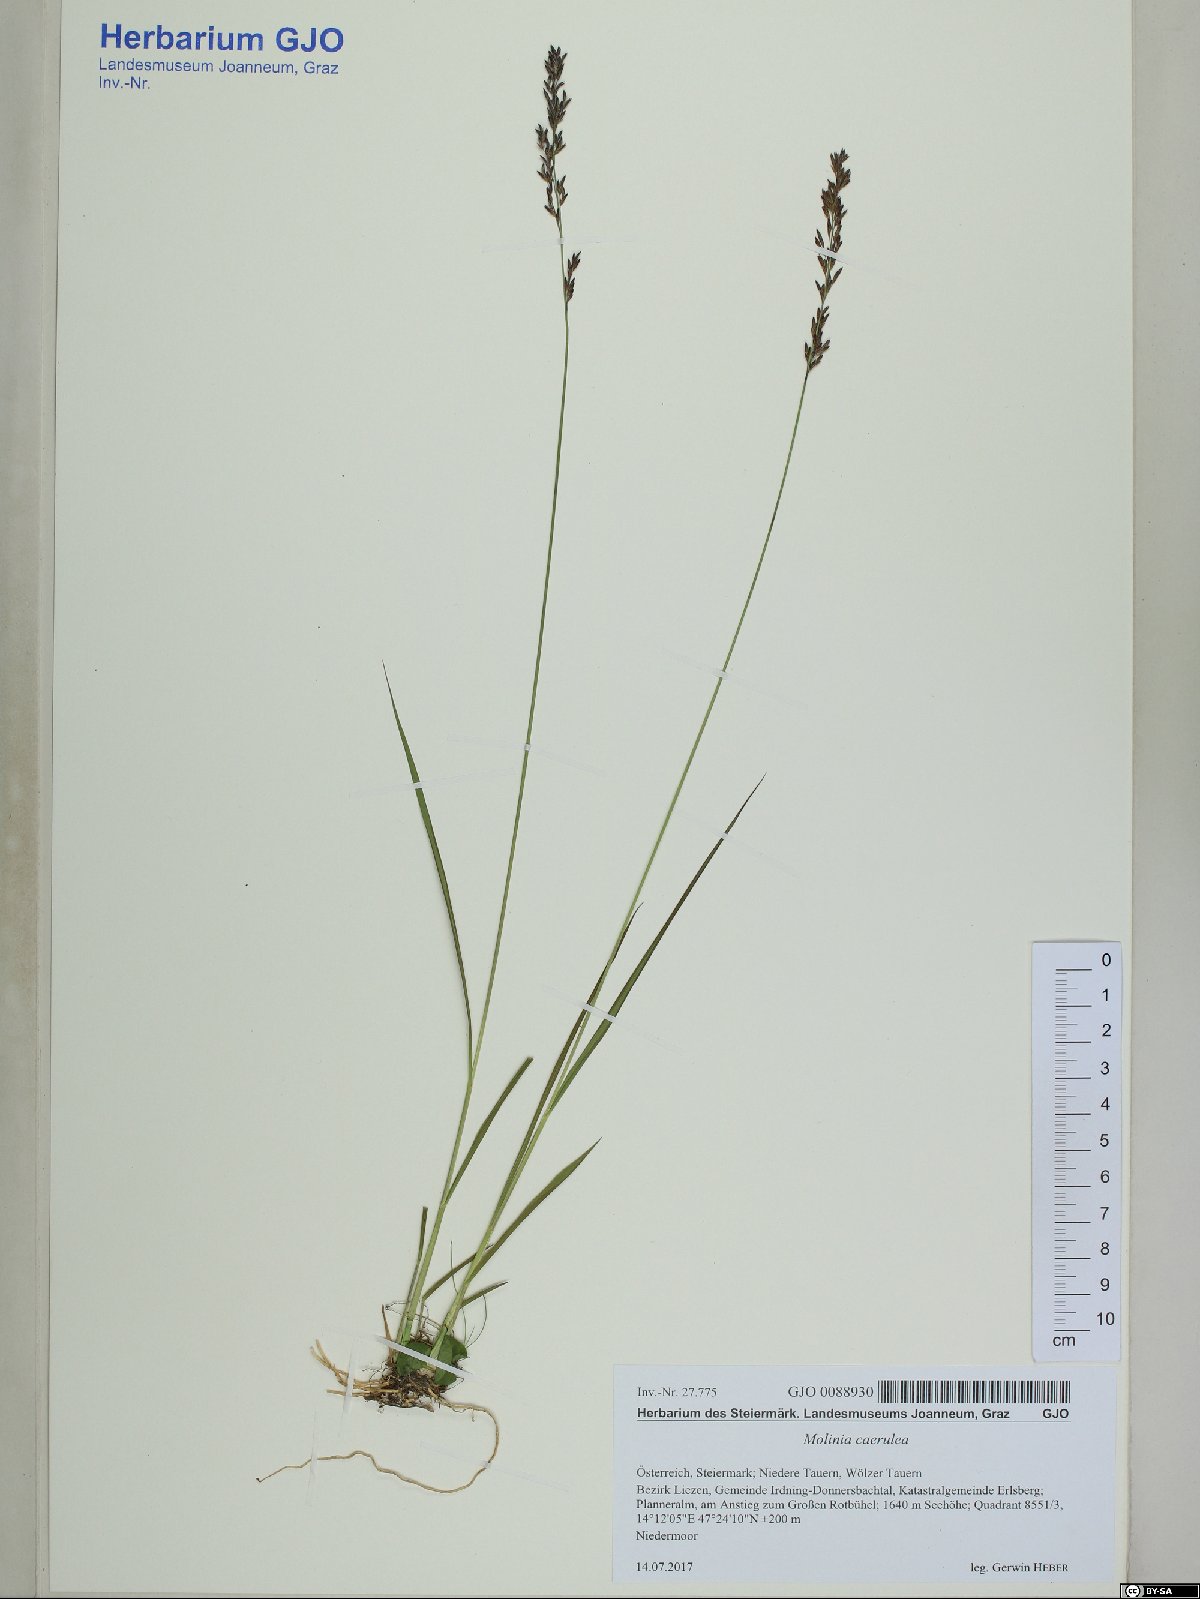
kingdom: Plantae
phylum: Tracheophyta
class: Liliopsida
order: Poales
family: Poaceae
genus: Molinia
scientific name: Molinia caerulea
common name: Purple moor-grass
